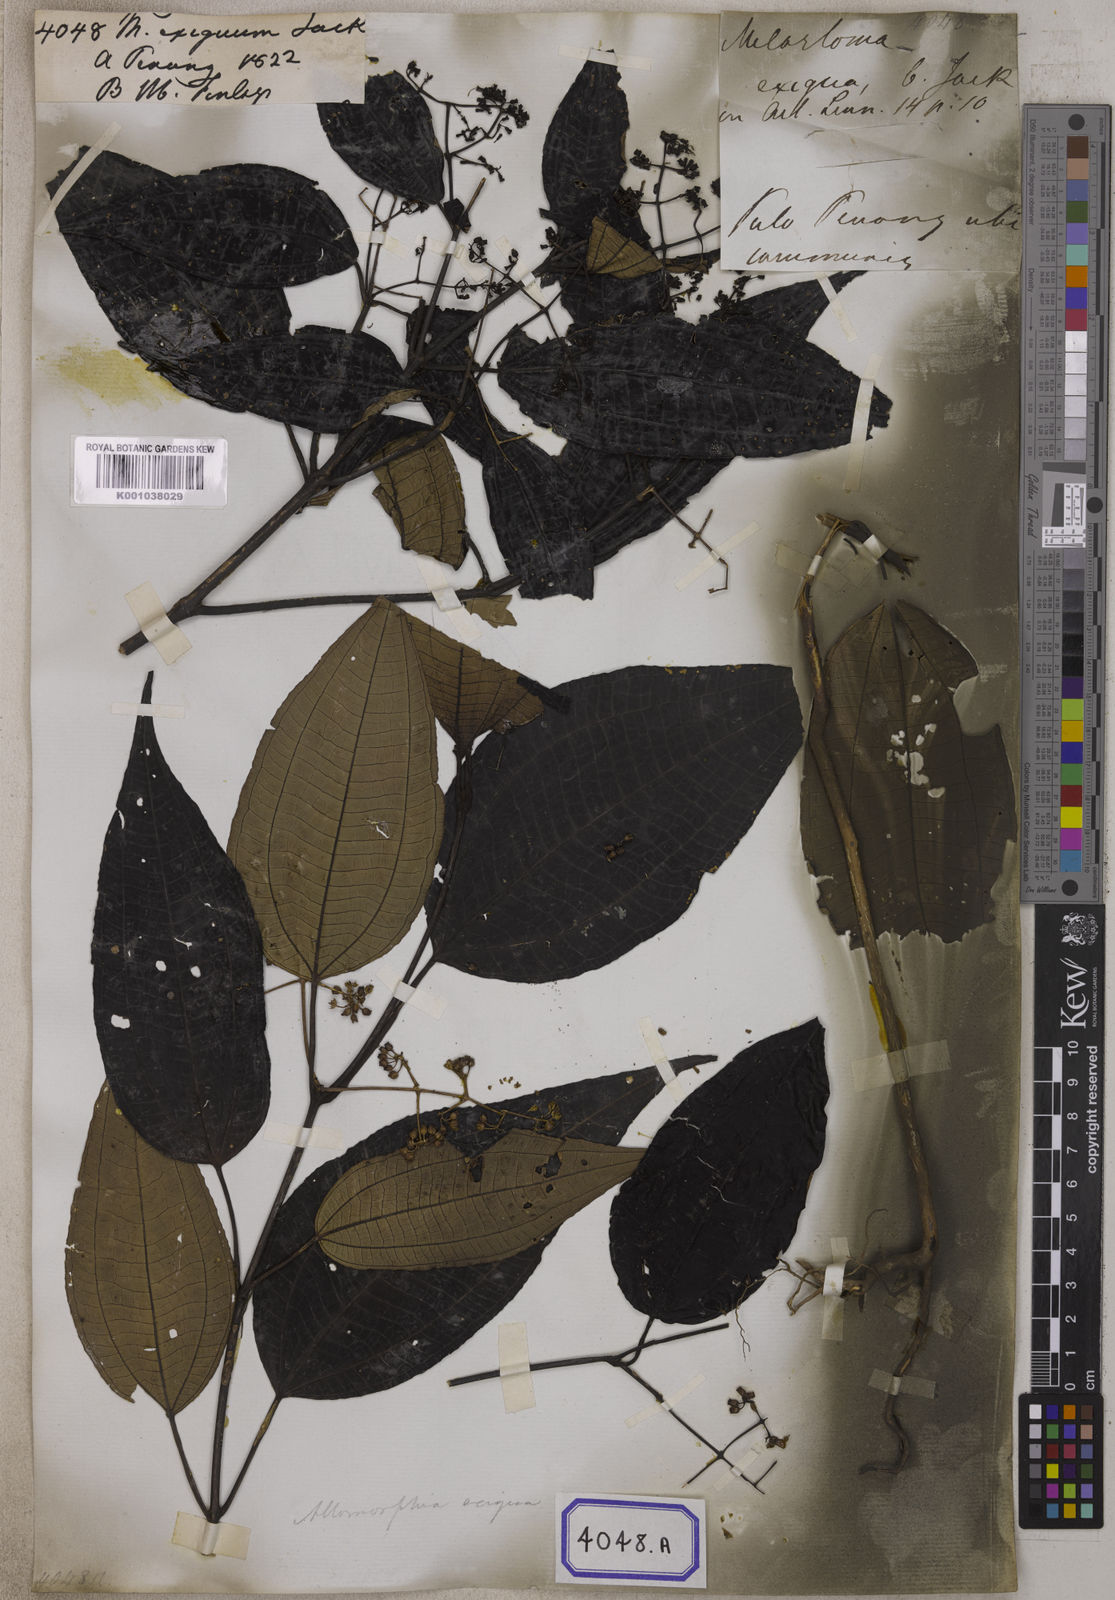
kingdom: Plantae
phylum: Tracheophyta
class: Magnoliopsida
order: Myrtales
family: Melastomataceae
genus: Allomorphia
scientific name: Allomorphia exigua
